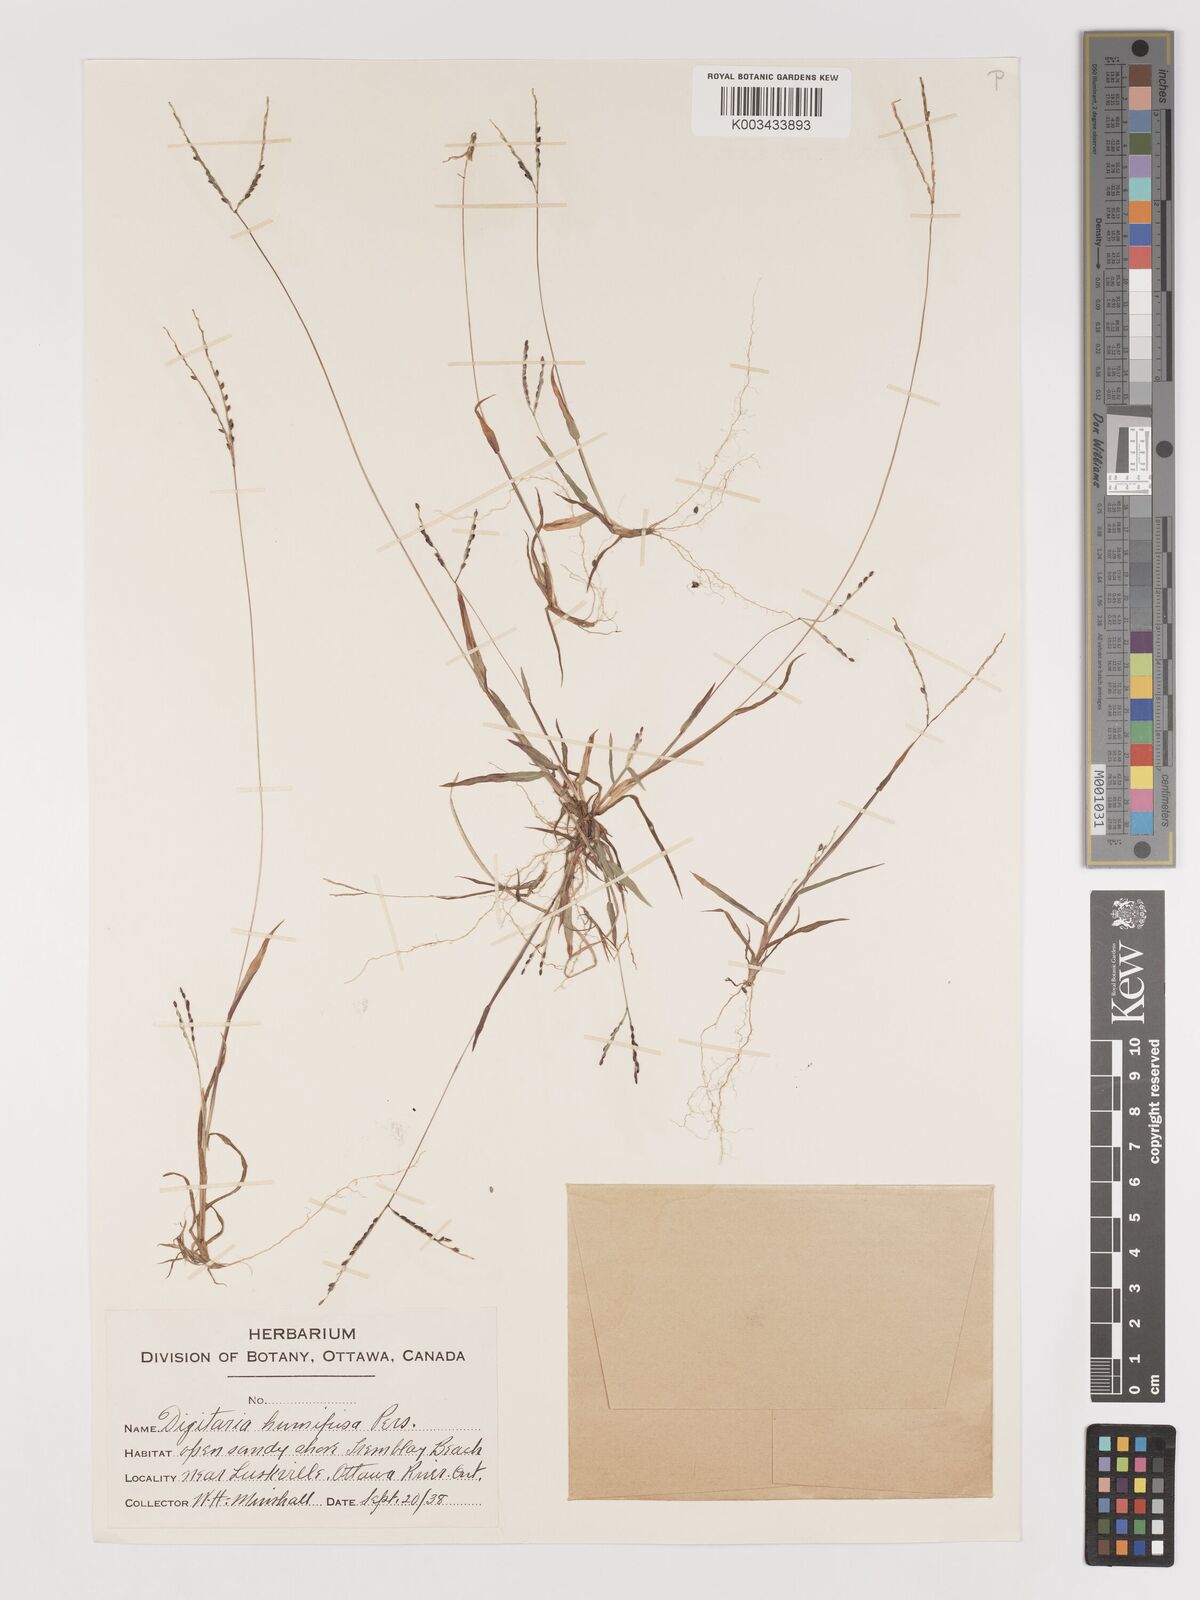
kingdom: Plantae
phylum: Tracheophyta
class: Liliopsida
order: Poales
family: Poaceae
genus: Digitaria
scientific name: Digitaria ischaemum
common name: Smooth crabgrass
